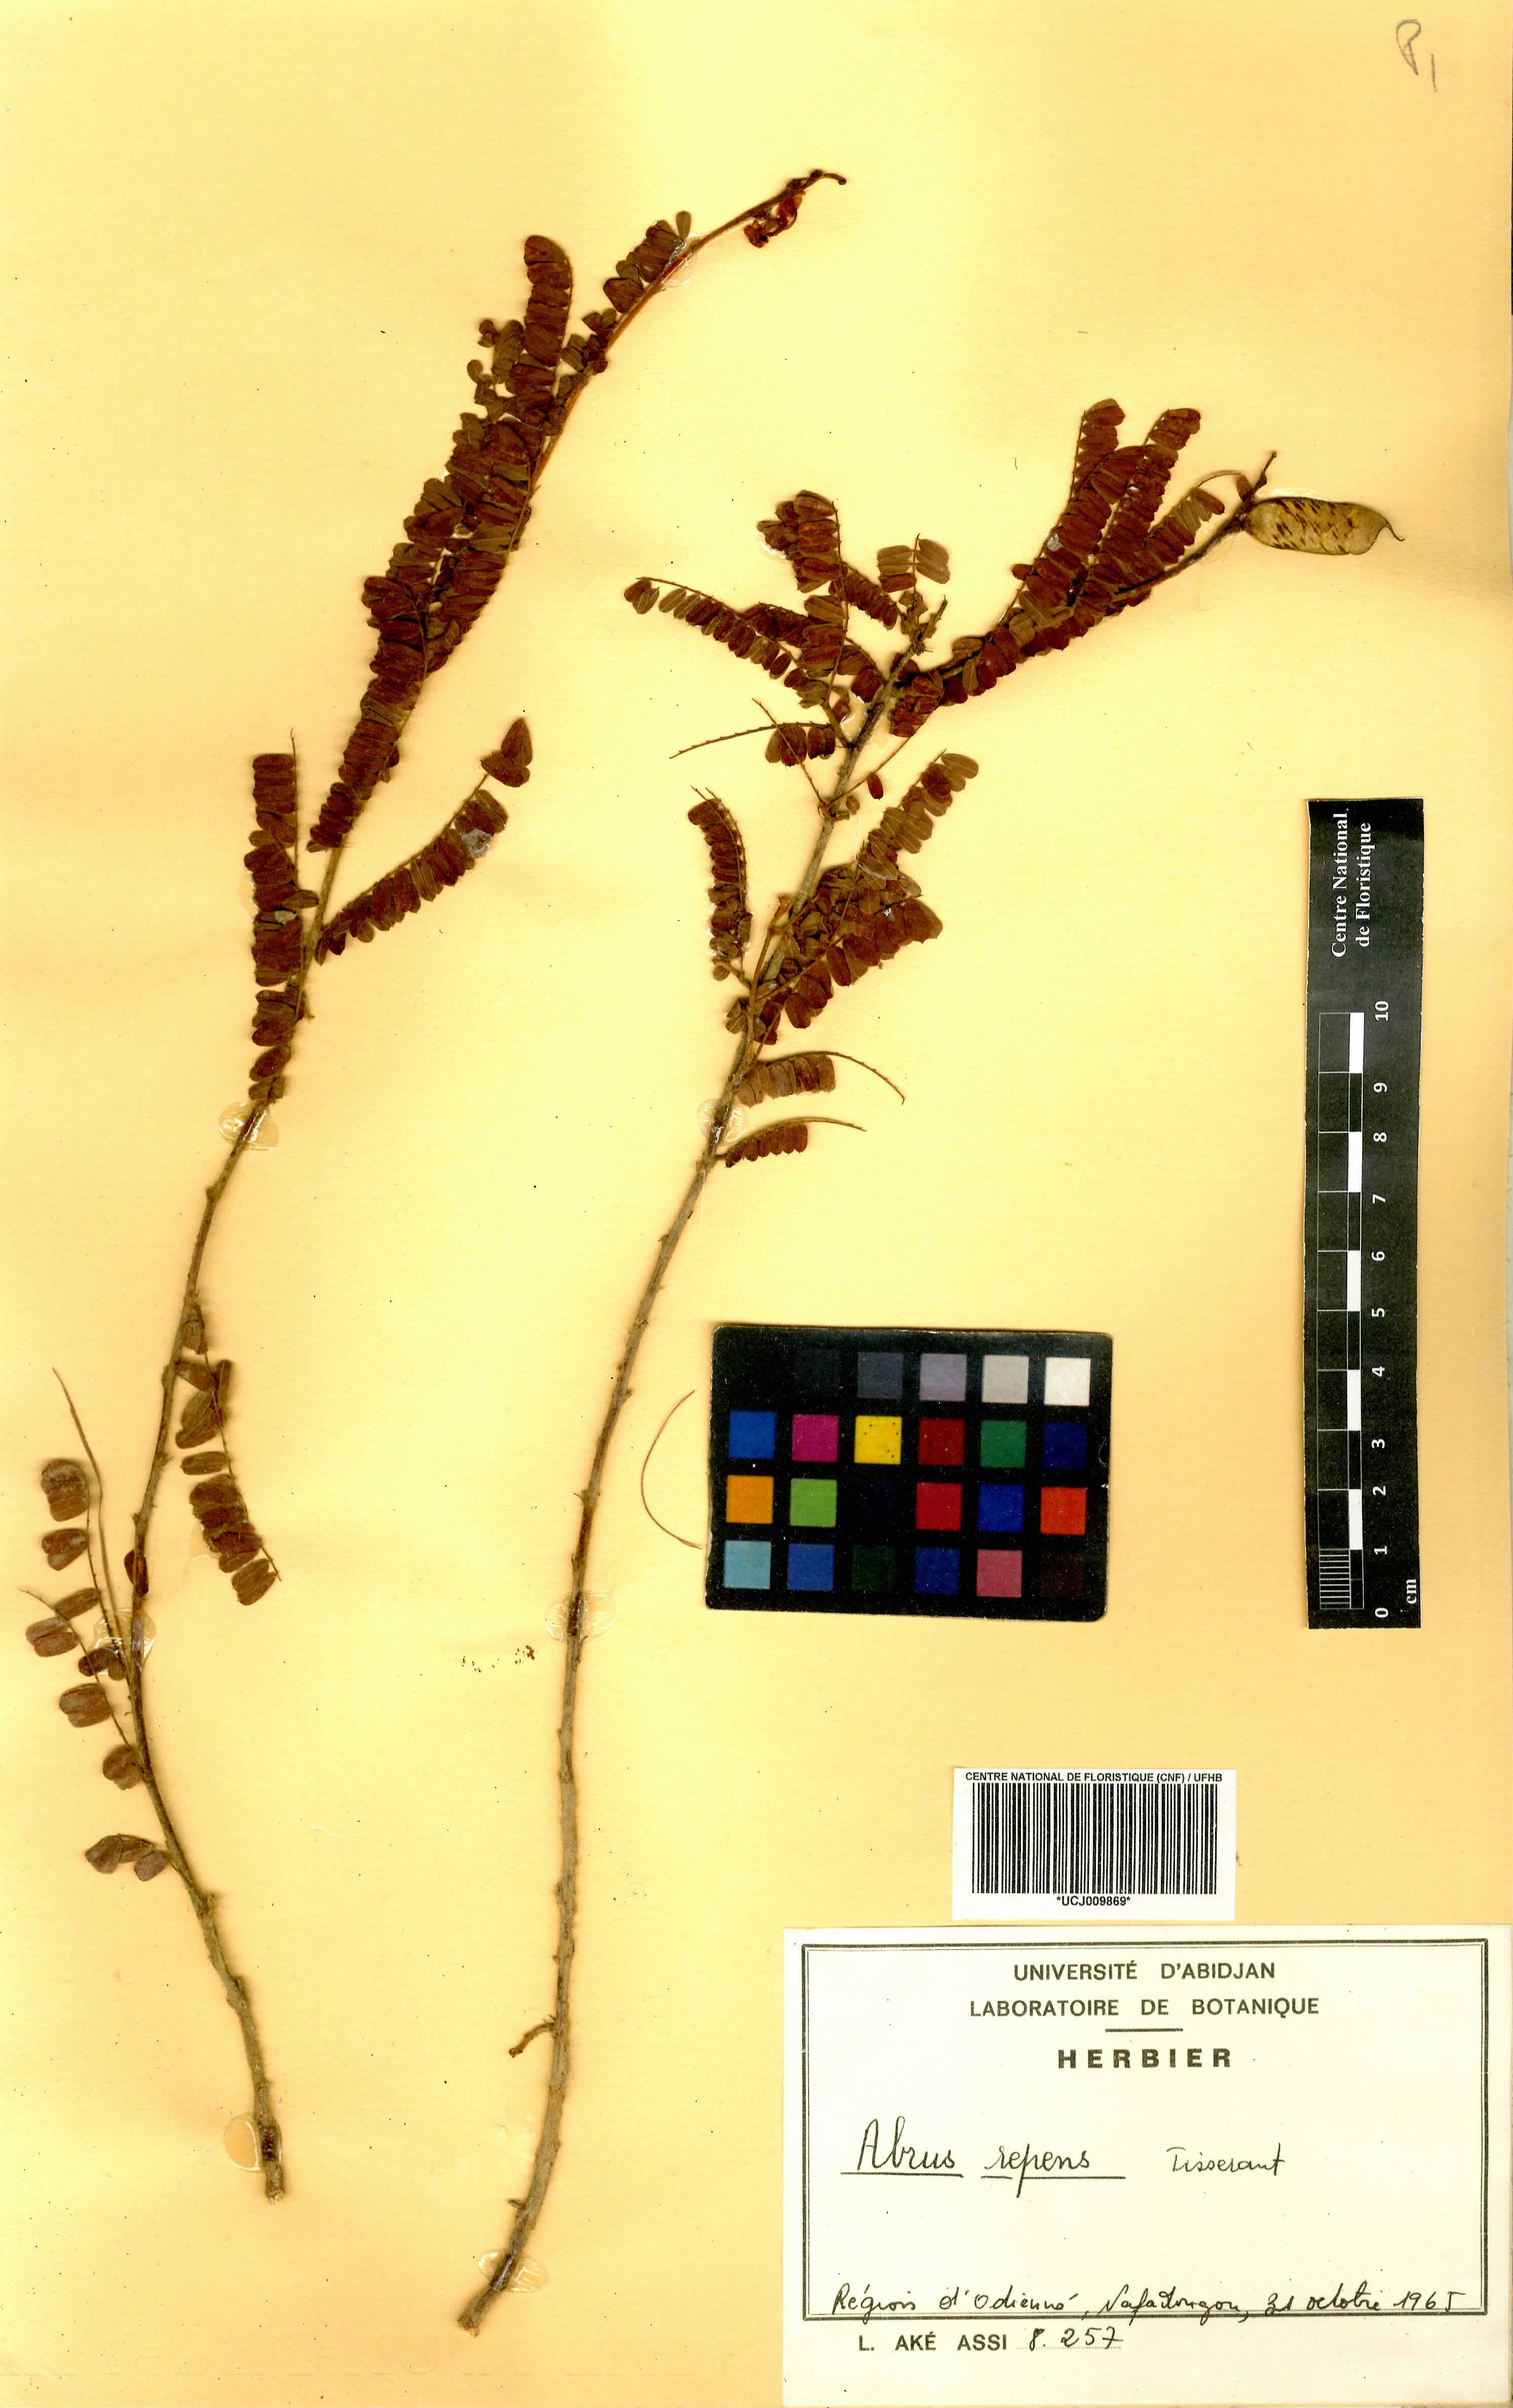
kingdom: Plantae
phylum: Tracheophyta
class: Magnoliopsida
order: Fabales
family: Fabaceae
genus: Abrus
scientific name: Abrus melanospermus
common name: Licorice-root
